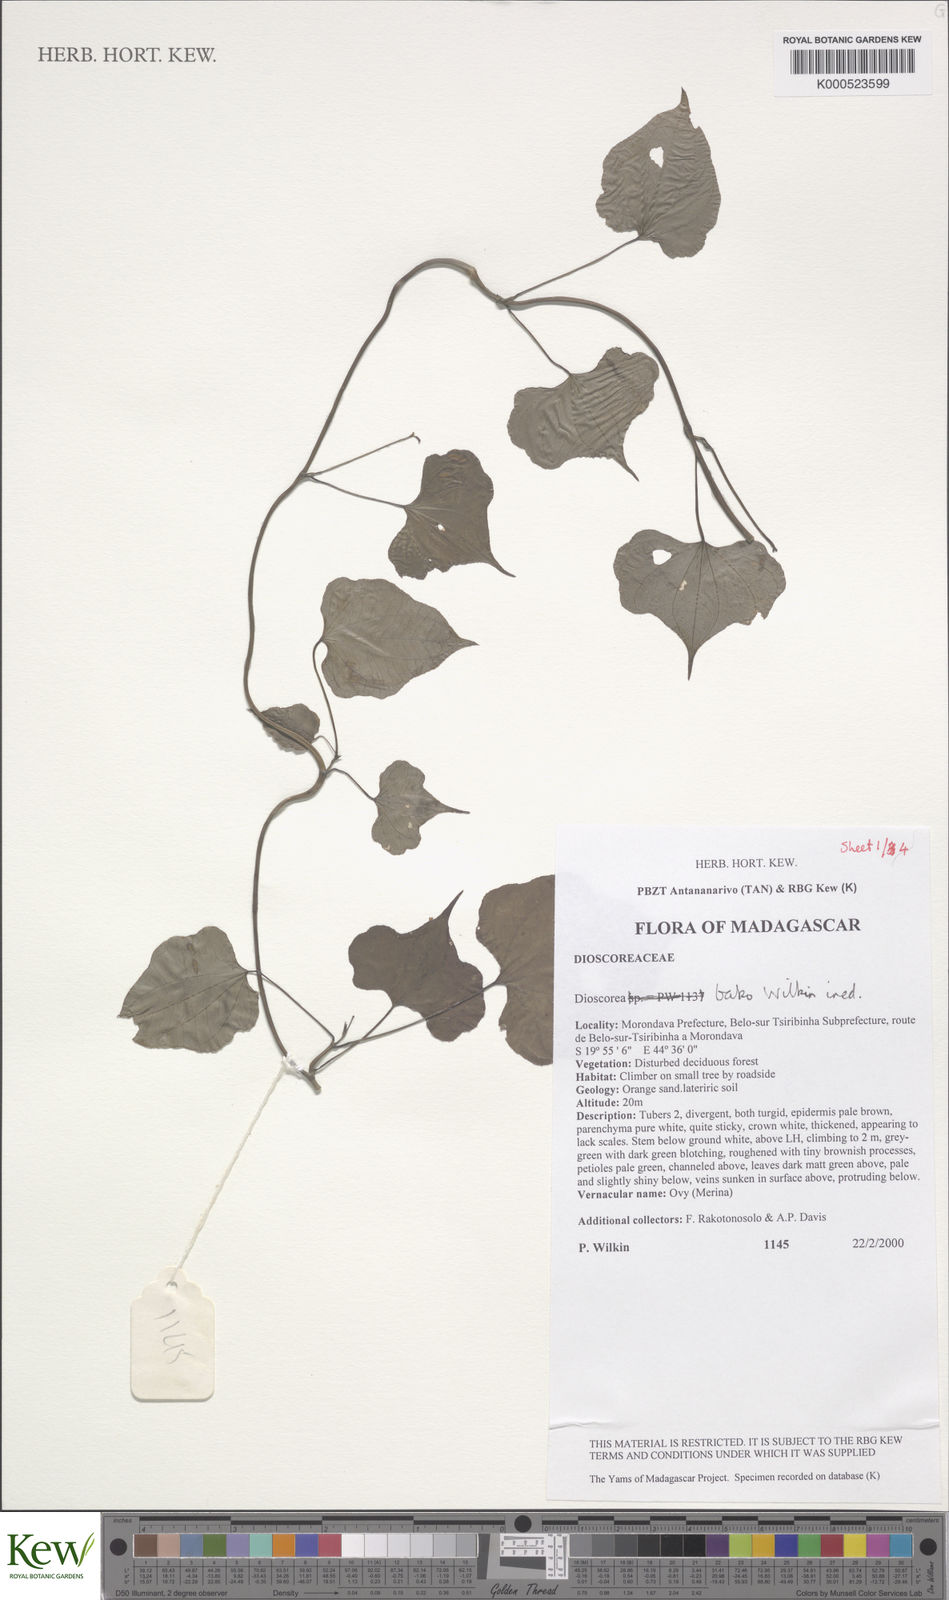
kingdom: Plantae
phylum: Tracheophyta
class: Liliopsida
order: Dioscoreales
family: Dioscoreaceae
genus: Dioscorea
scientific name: Dioscorea bako
